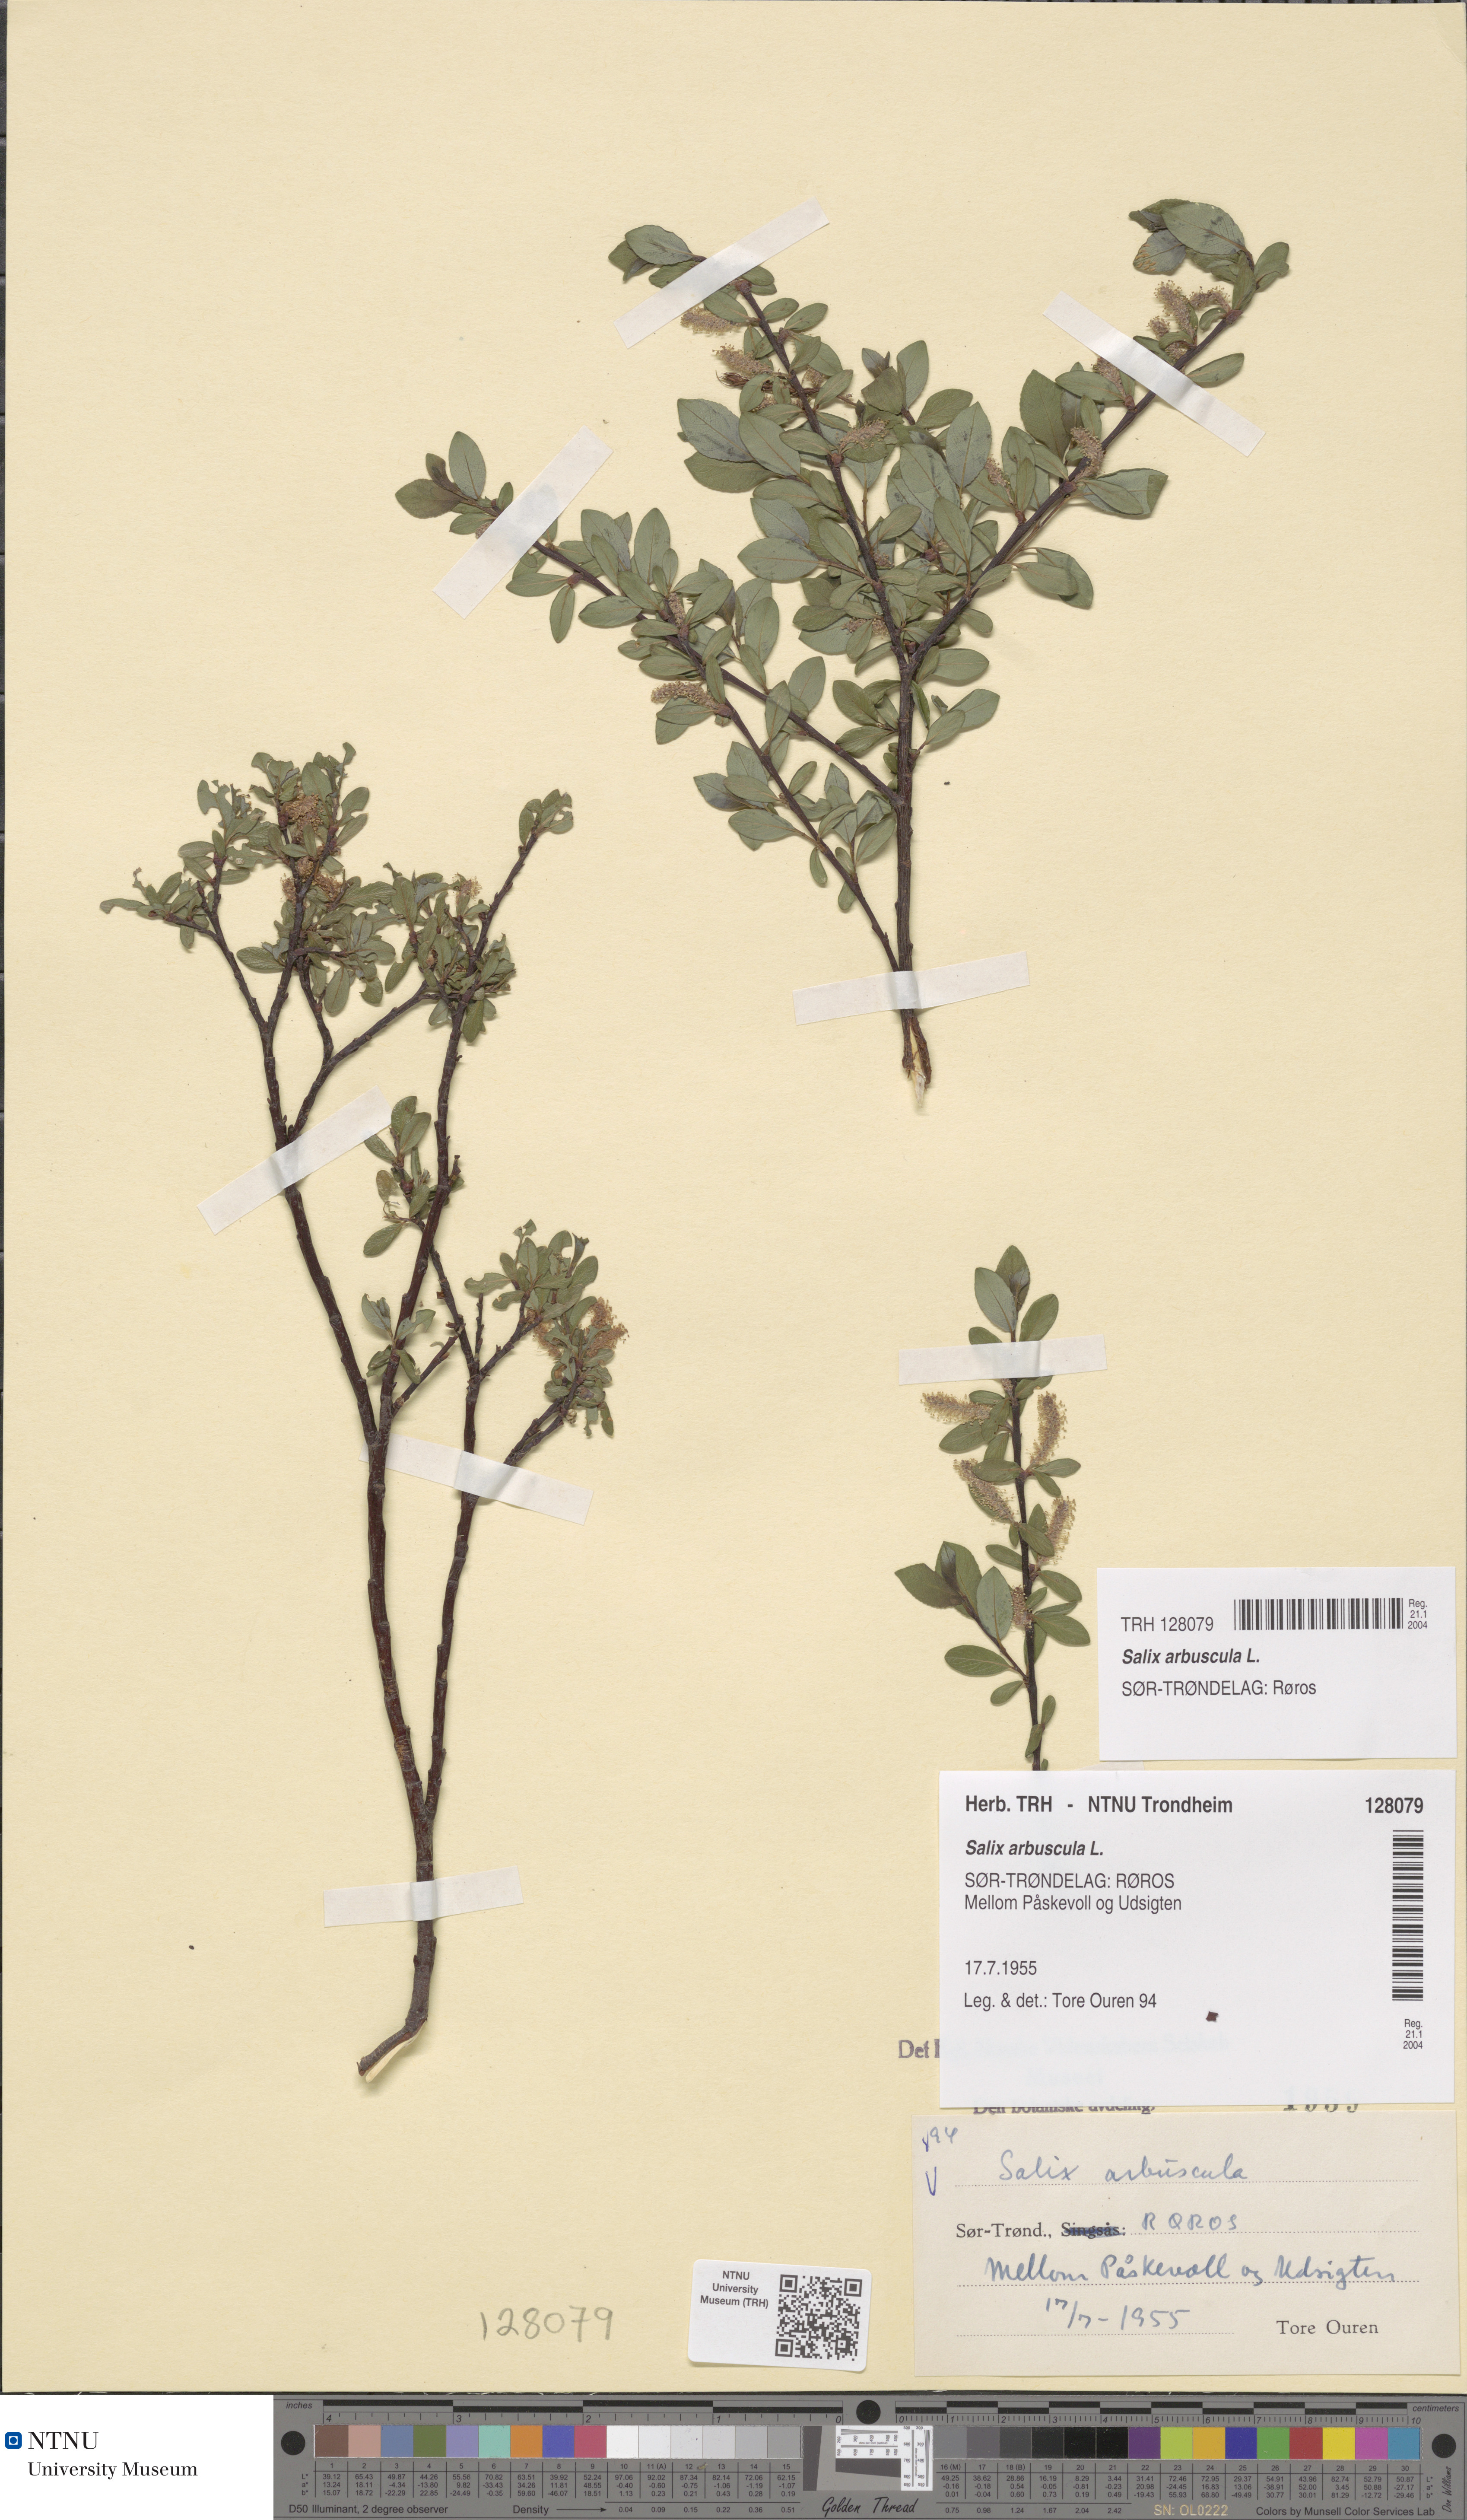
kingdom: Plantae
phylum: Tracheophyta
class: Magnoliopsida
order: Malpighiales
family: Salicaceae
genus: Salix
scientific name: Salix arbuscula
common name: Mountain willow
